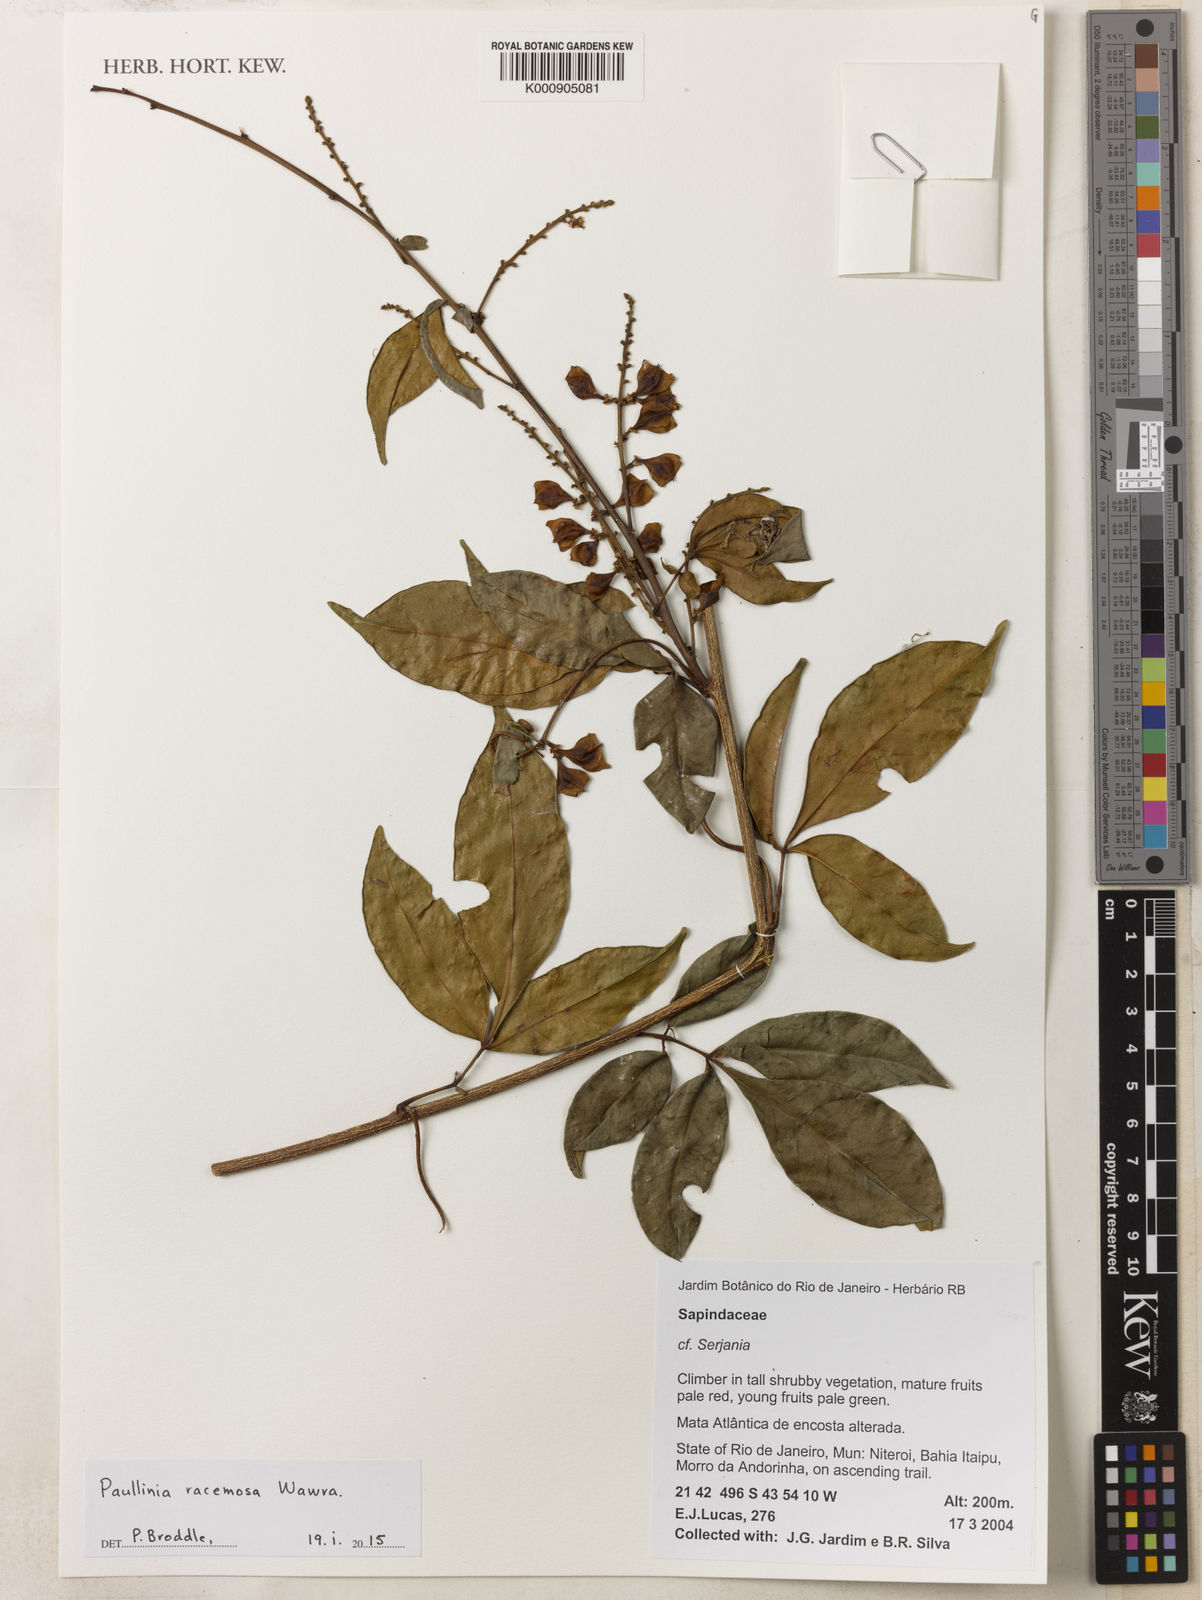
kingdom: Plantae
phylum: Tracheophyta
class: Magnoliopsida
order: Sapindales
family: Sapindaceae
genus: Paullinia
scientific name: Paullinia racemosa
